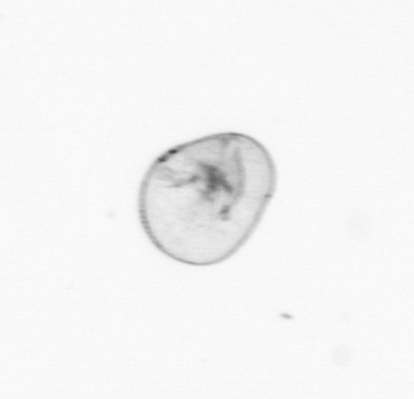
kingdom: Chromista
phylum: Myzozoa
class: Dinophyceae
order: Noctilucales
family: Noctilucaceae
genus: Noctiluca
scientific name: Noctiluca scintillans
